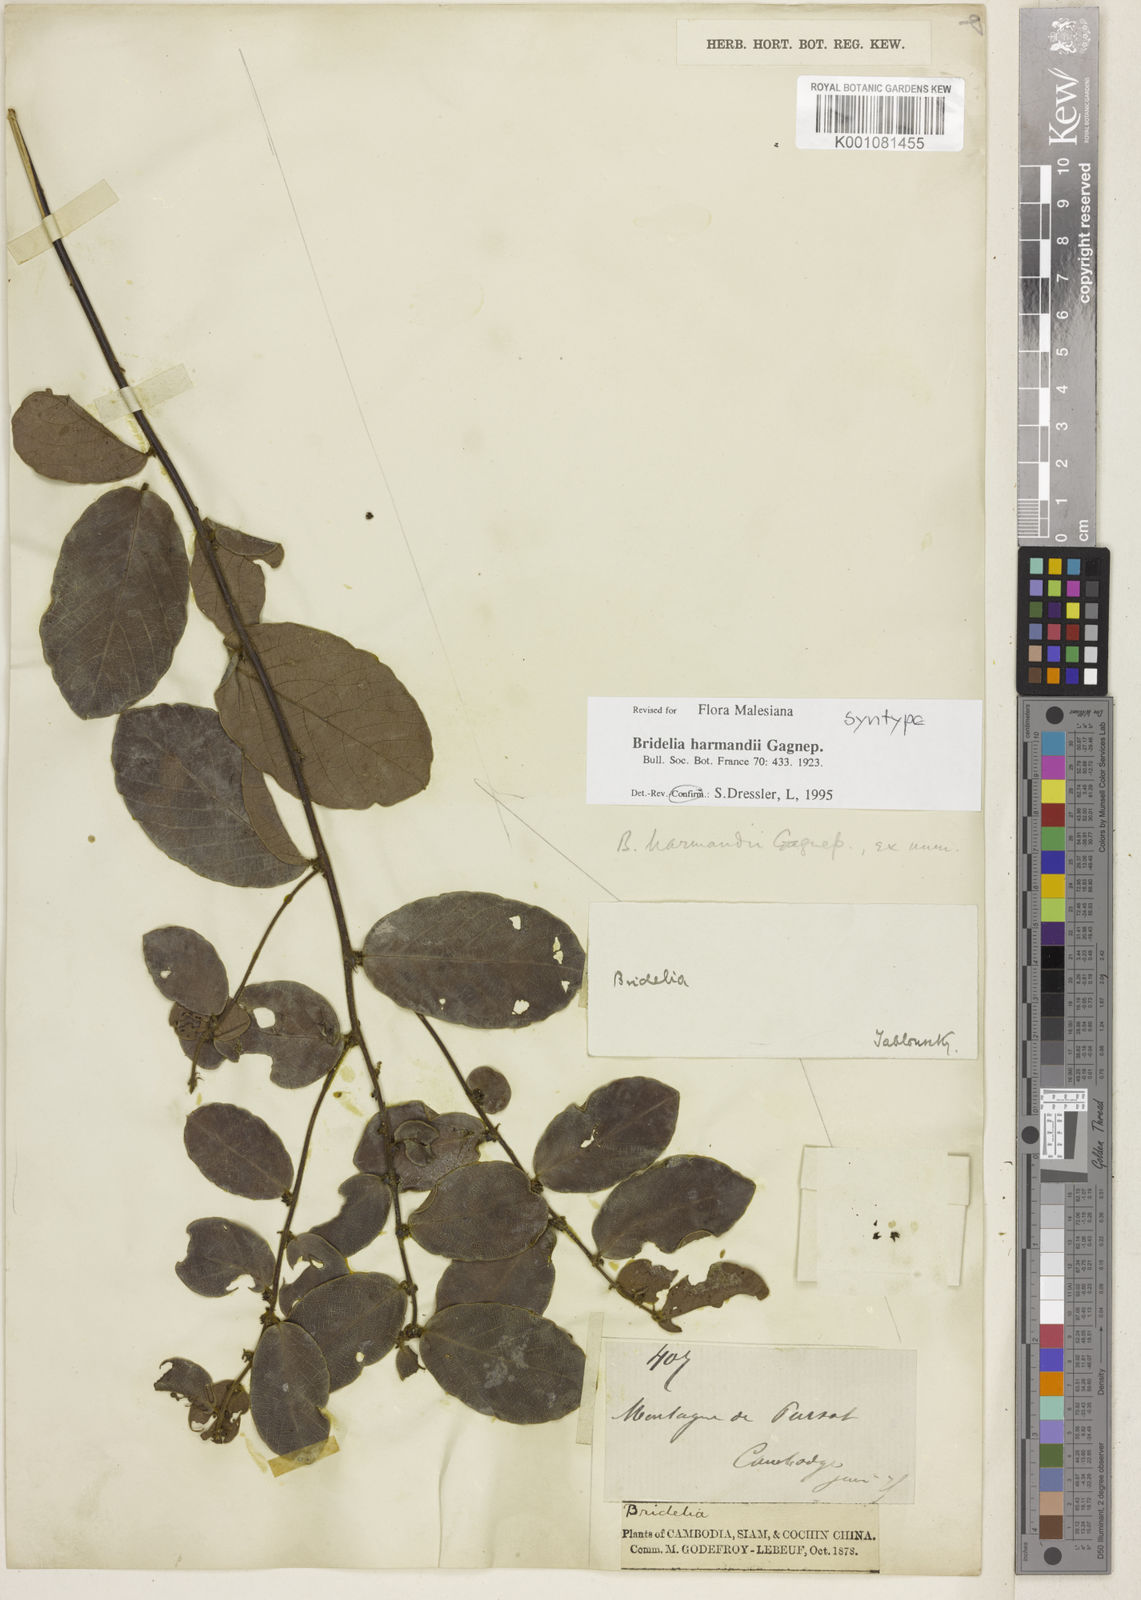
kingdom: Plantae
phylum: Tracheophyta
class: Magnoliopsida
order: Malpighiales
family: Phyllanthaceae
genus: Bridelia
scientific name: Bridelia harmandii
